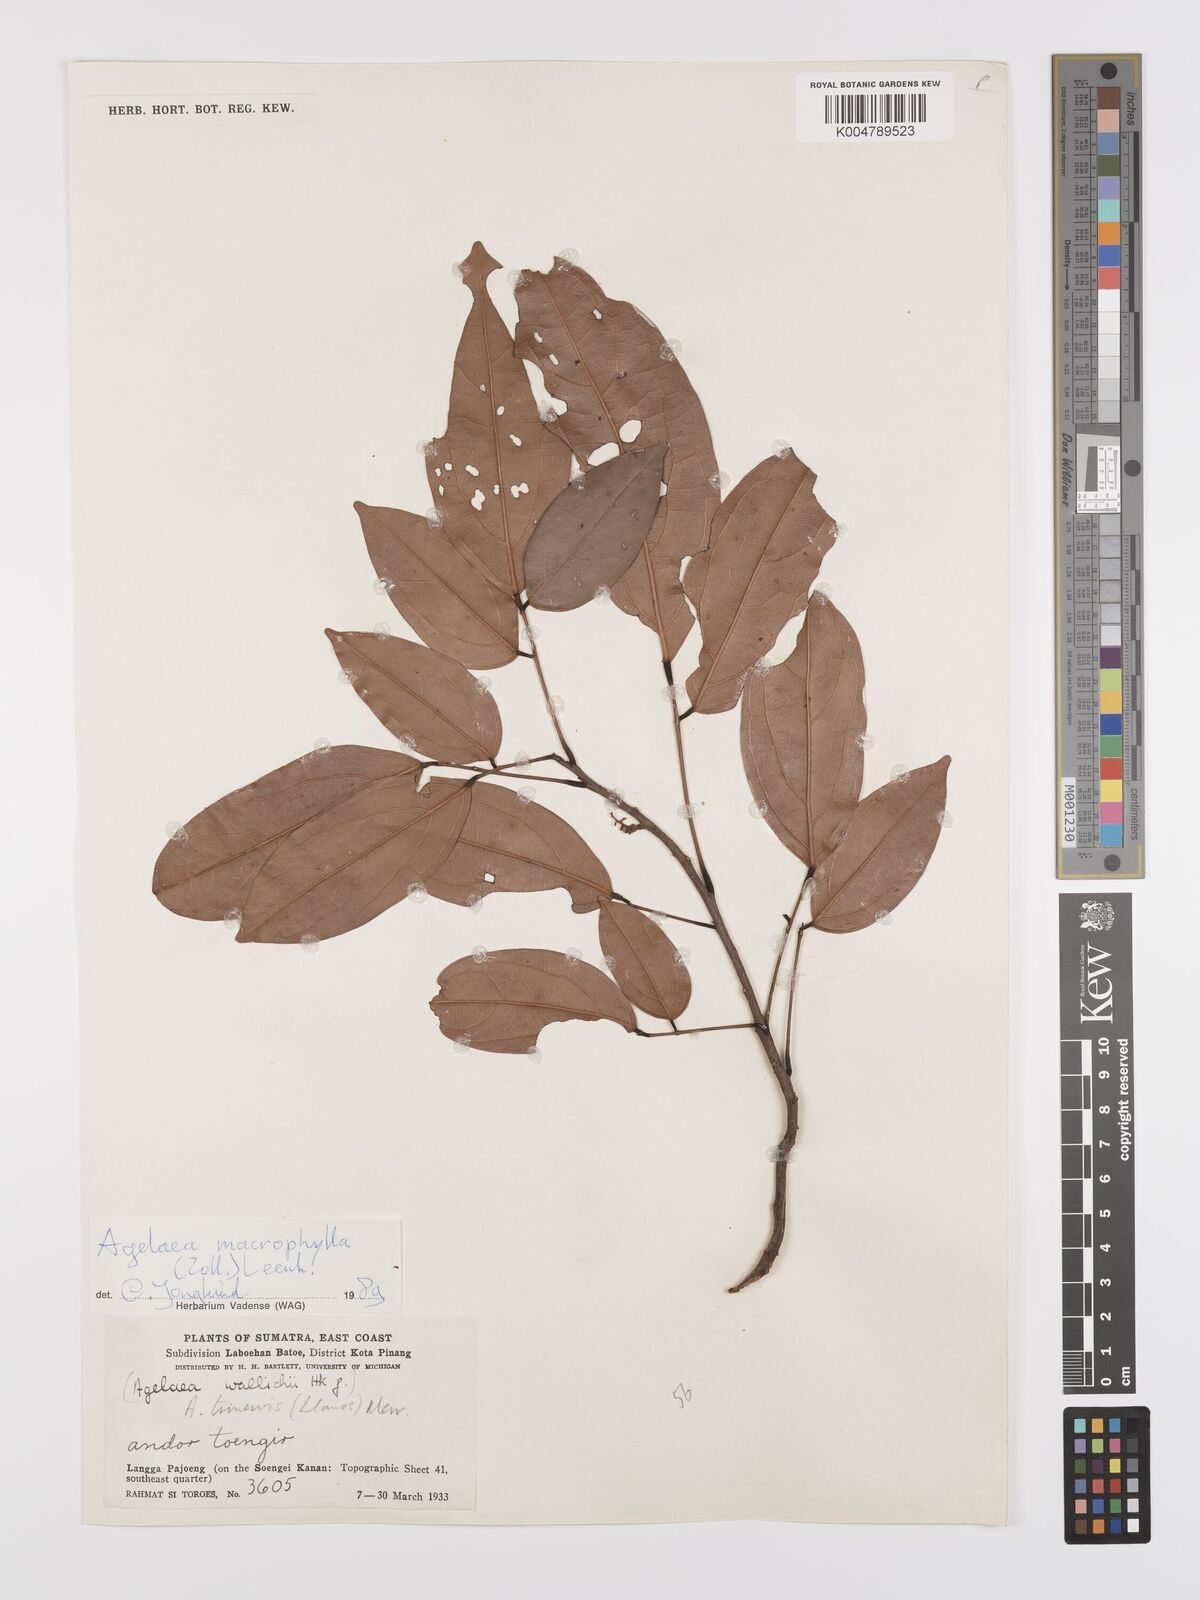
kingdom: Plantae
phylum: Tracheophyta
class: Magnoliopsida
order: Oxalidales
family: Connaraceae
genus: Agelaea
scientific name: Agelaea trinervis
